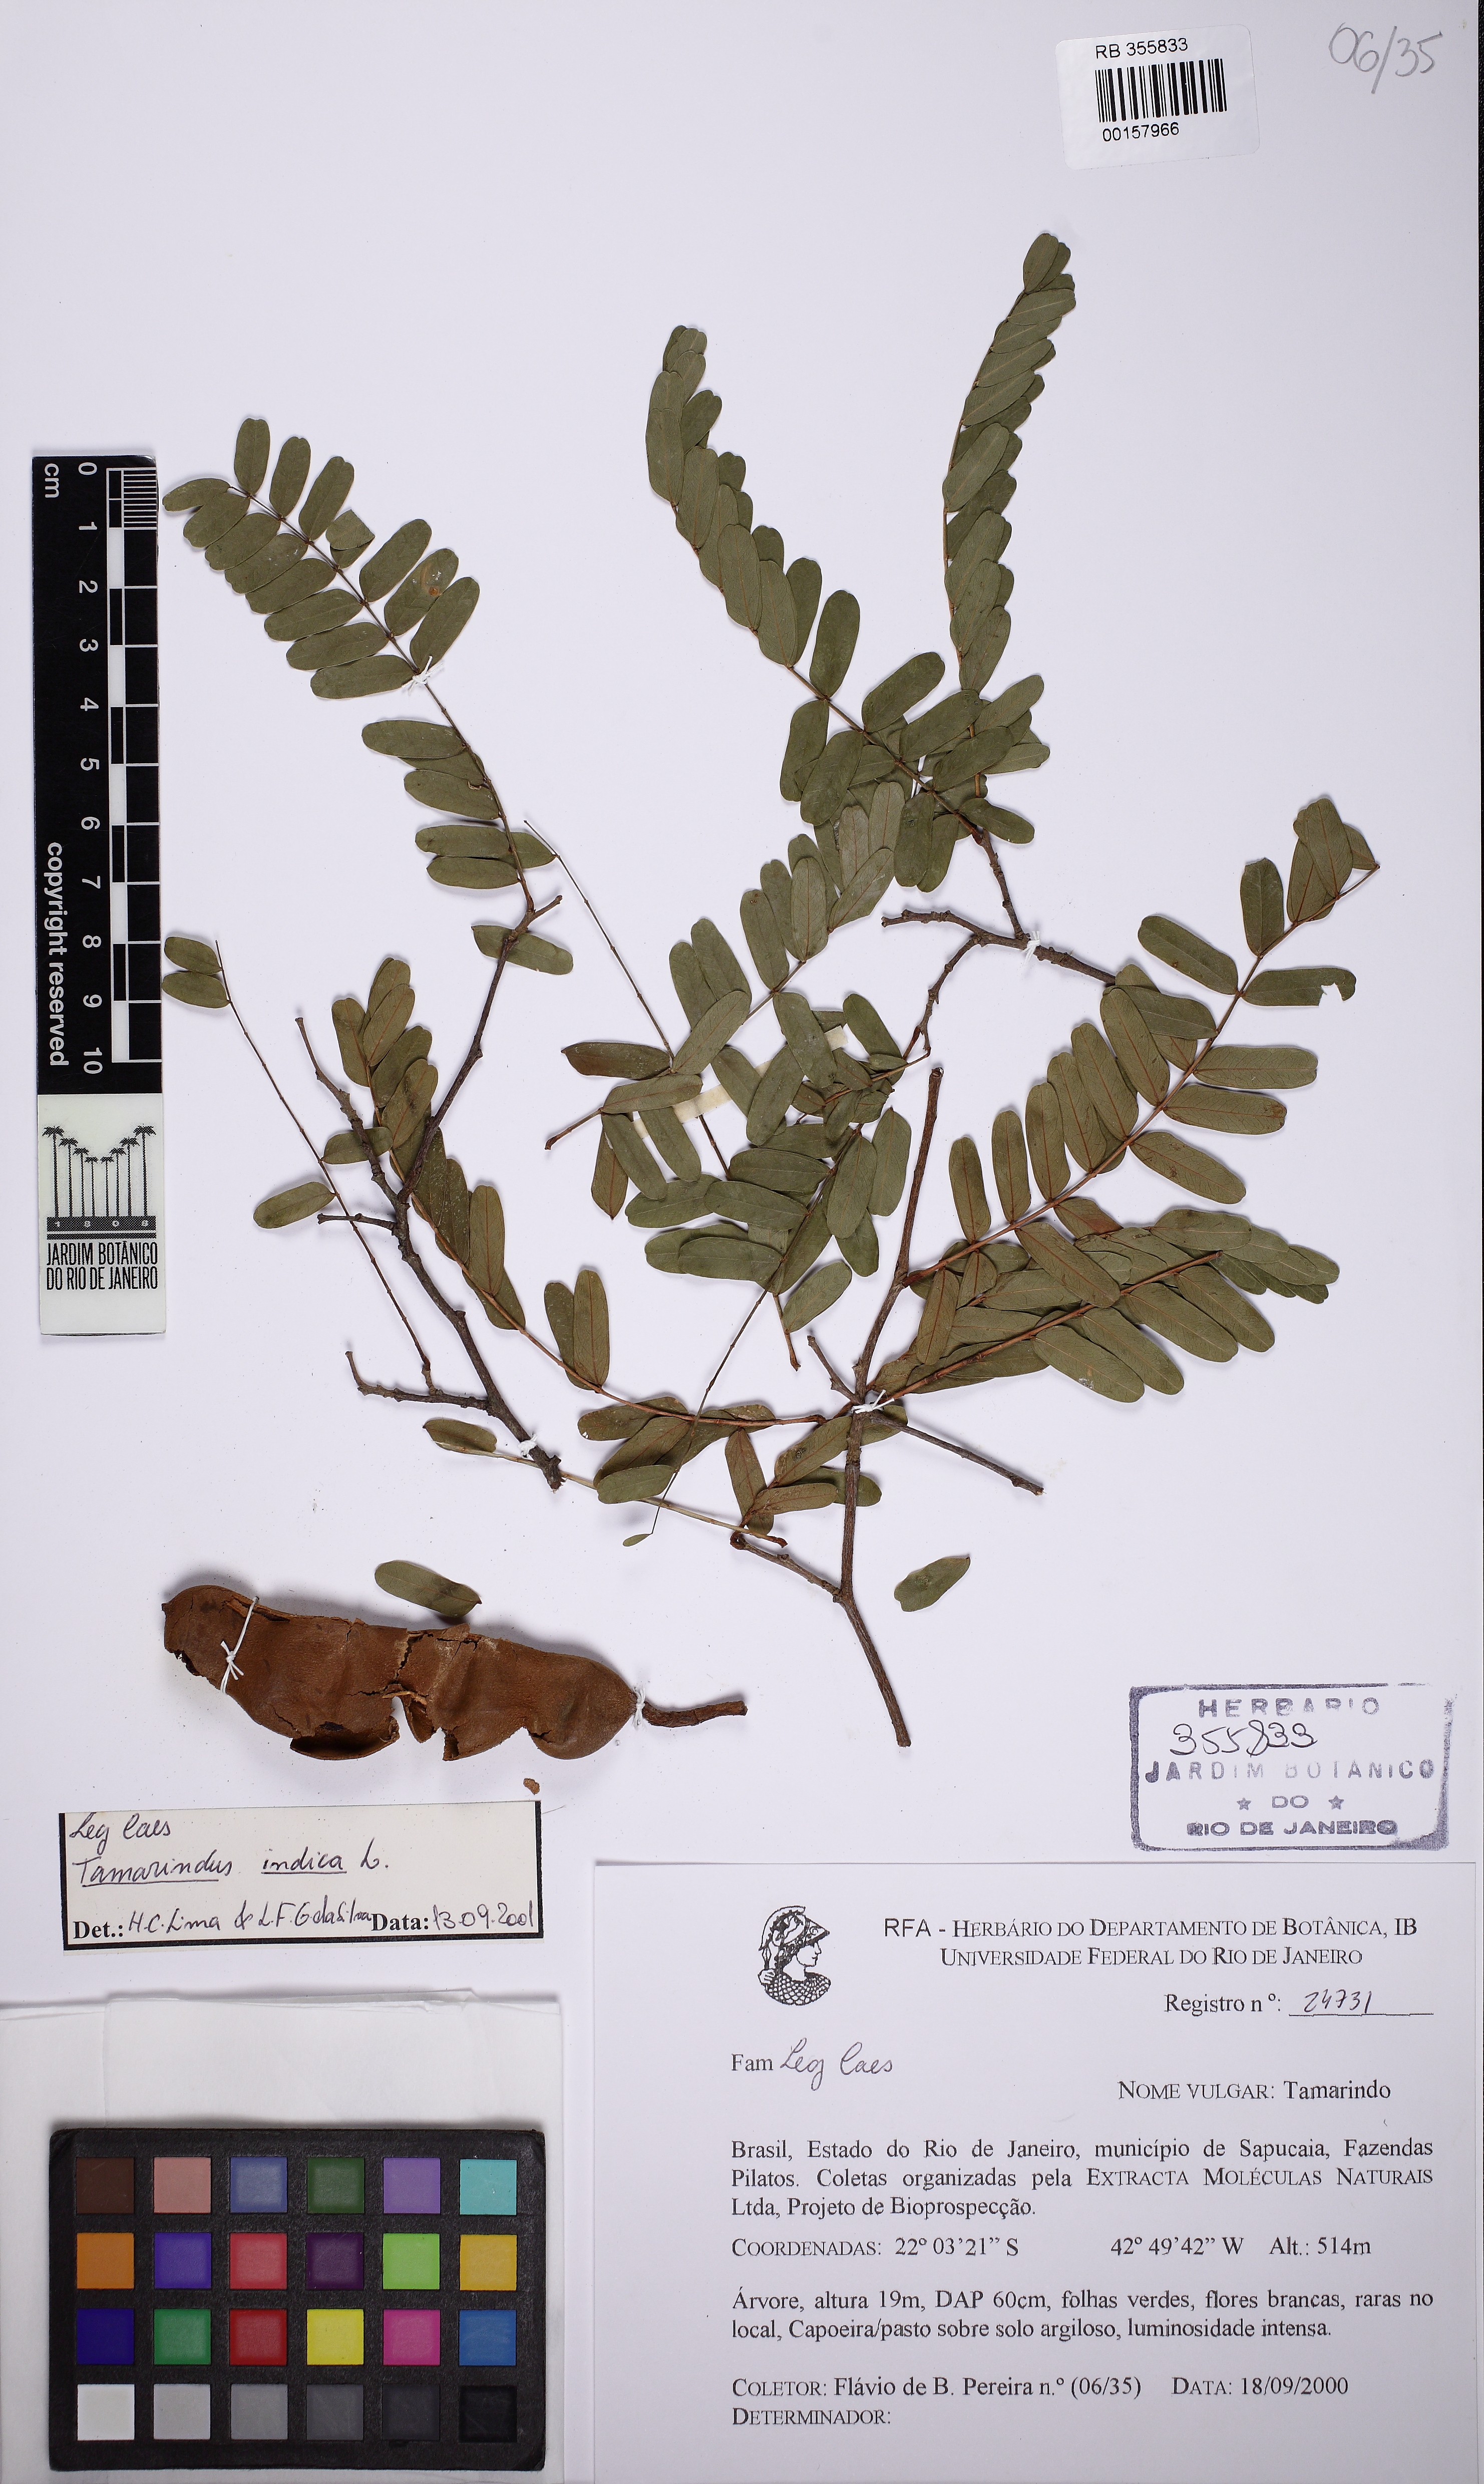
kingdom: Plantae
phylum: Tracheophyta
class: Magnoliopsida
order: Fabales
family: Fabaceae
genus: Tamarindus
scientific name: Tamarindus indica
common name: Tamarind
